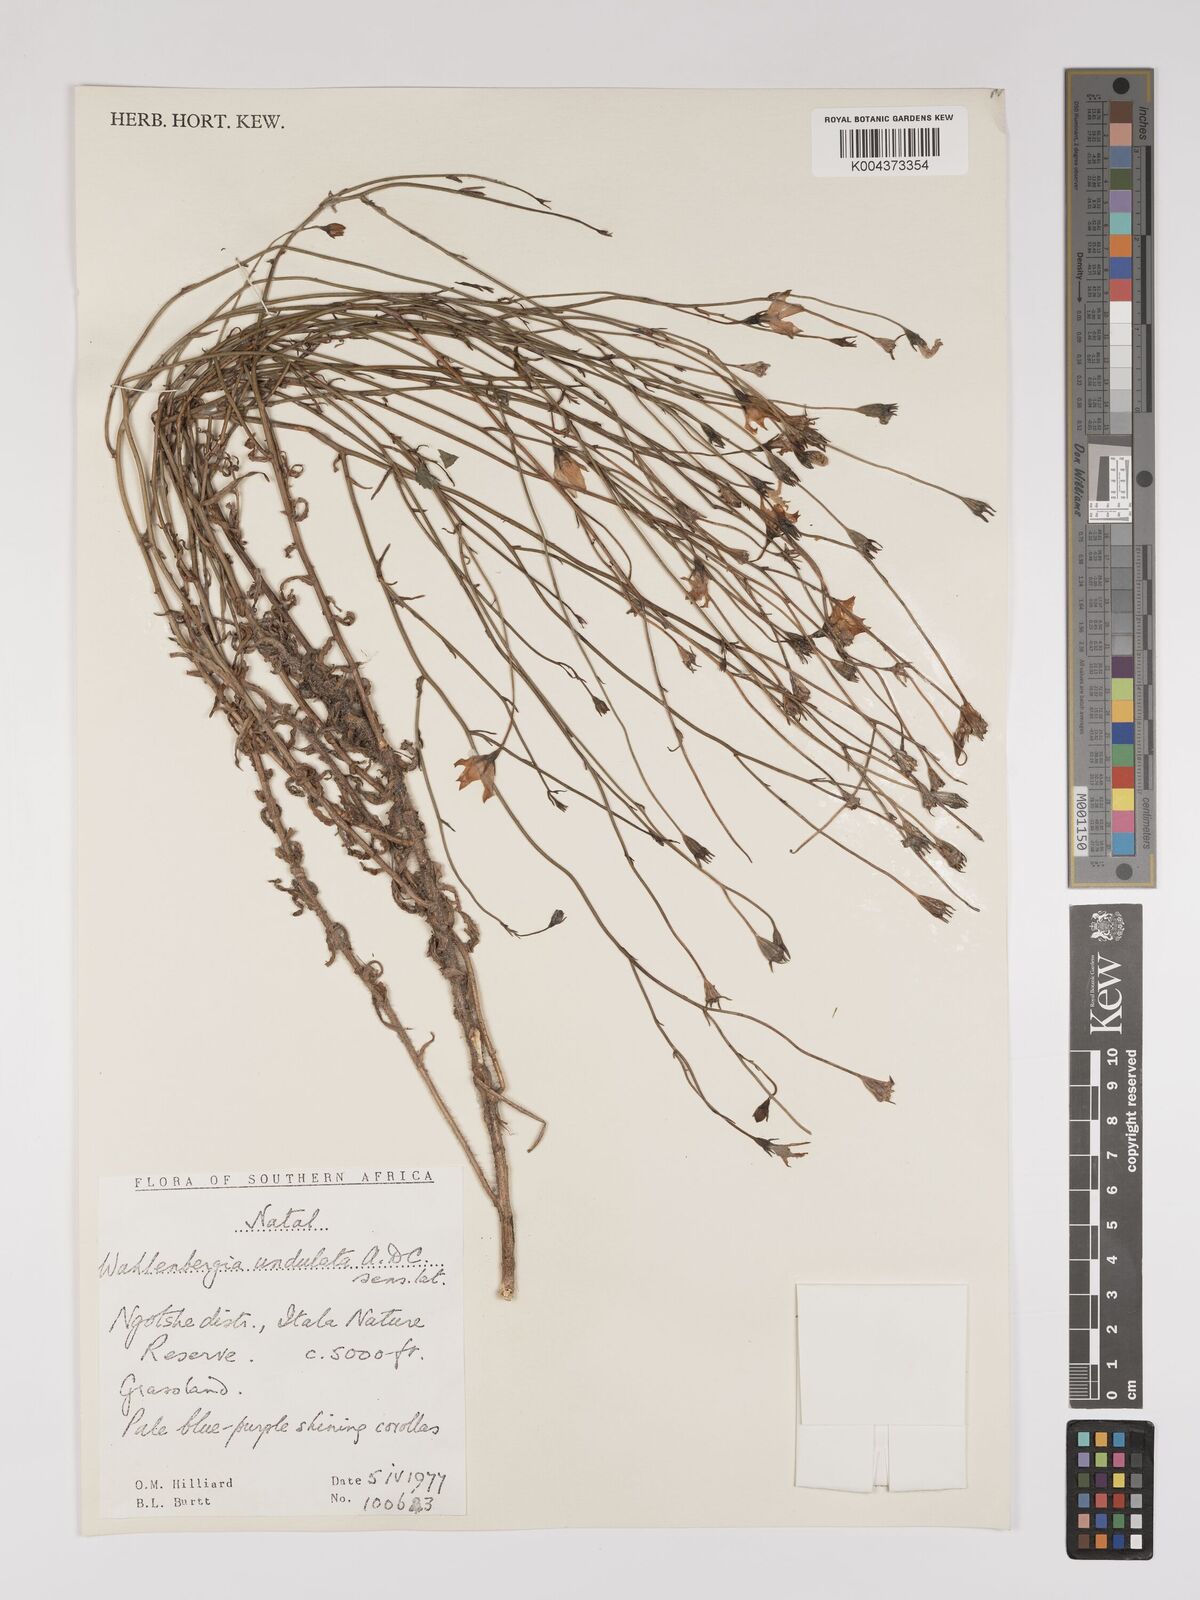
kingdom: Plantae
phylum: Tracheophyta
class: Magnoliopsida
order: Asterales
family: Campanulaceae
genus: Wahlenbergia
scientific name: Wahlenbergia undulata
